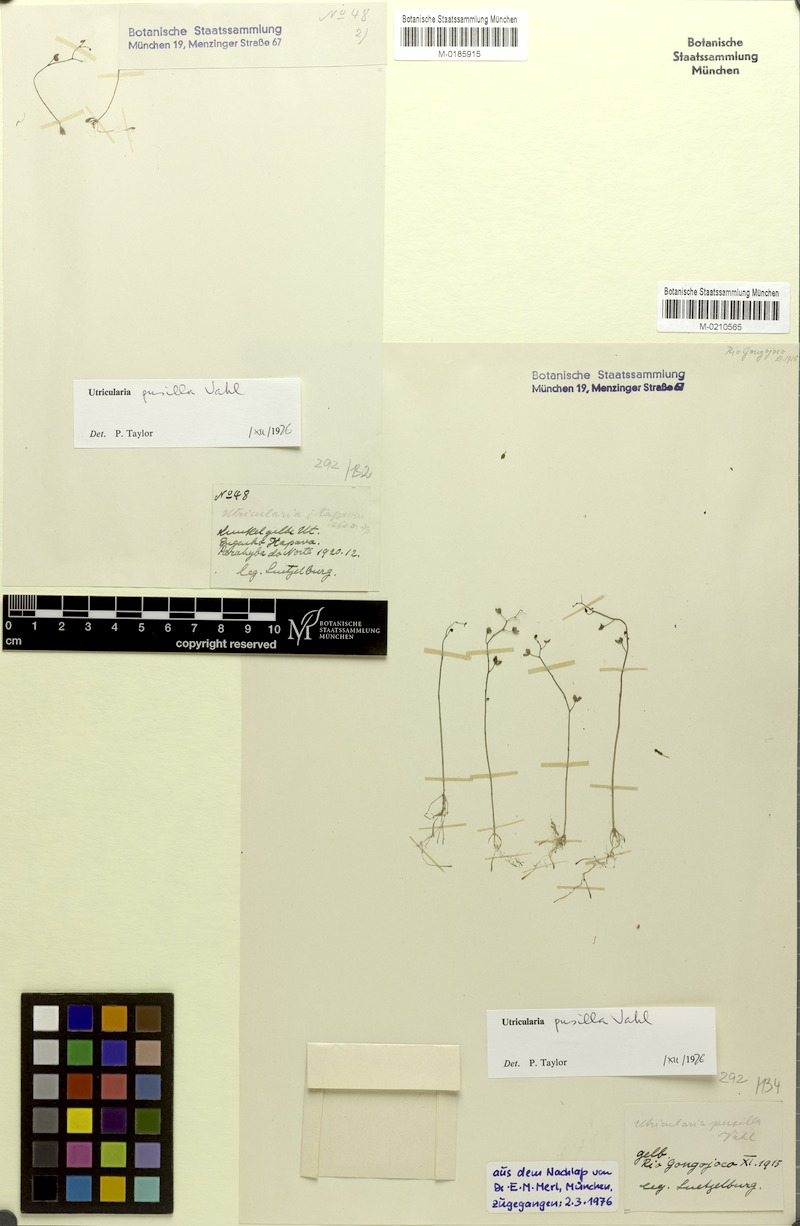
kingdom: Plantae
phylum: Tracheophyta
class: Magnoliopsida
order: Lamiales
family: Lentibulariaceae
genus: Utricularia
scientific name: Utricularia pusilla
